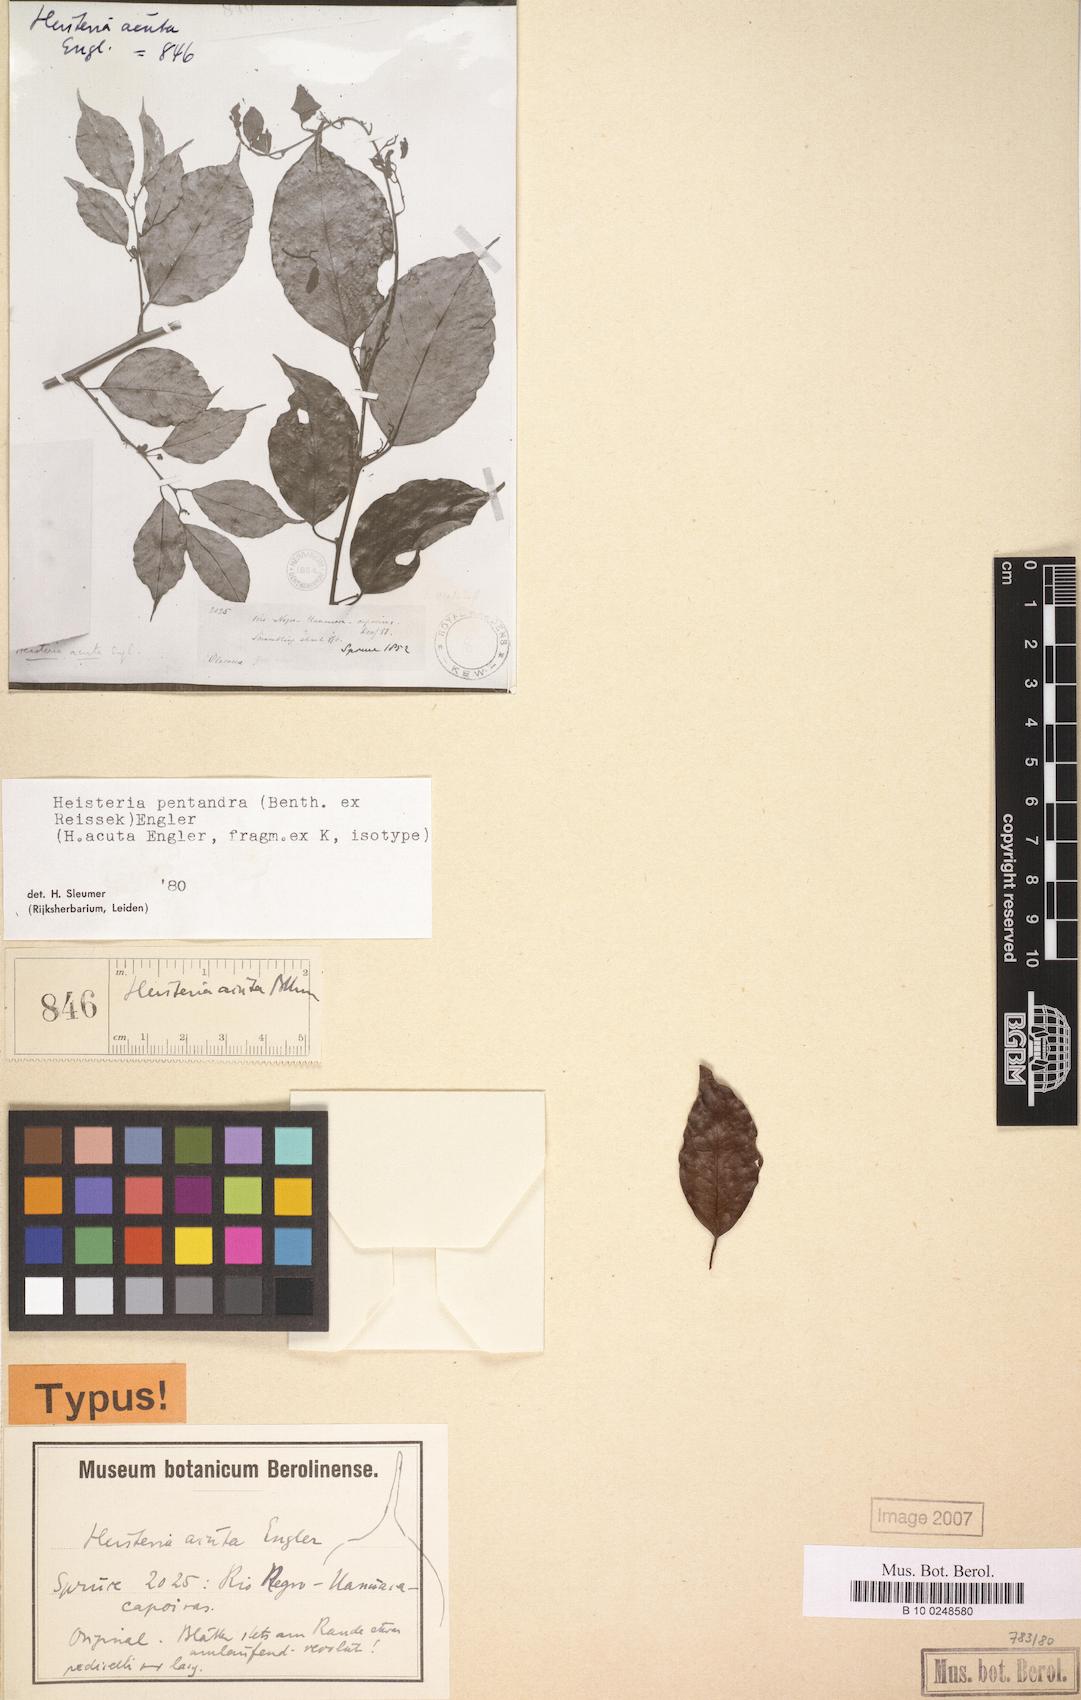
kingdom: Plantae
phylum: Tracheophyta
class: Magnoliopsida
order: Santalales
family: Erythropalaceae
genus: Heisteria
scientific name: Heisteria pentandra
